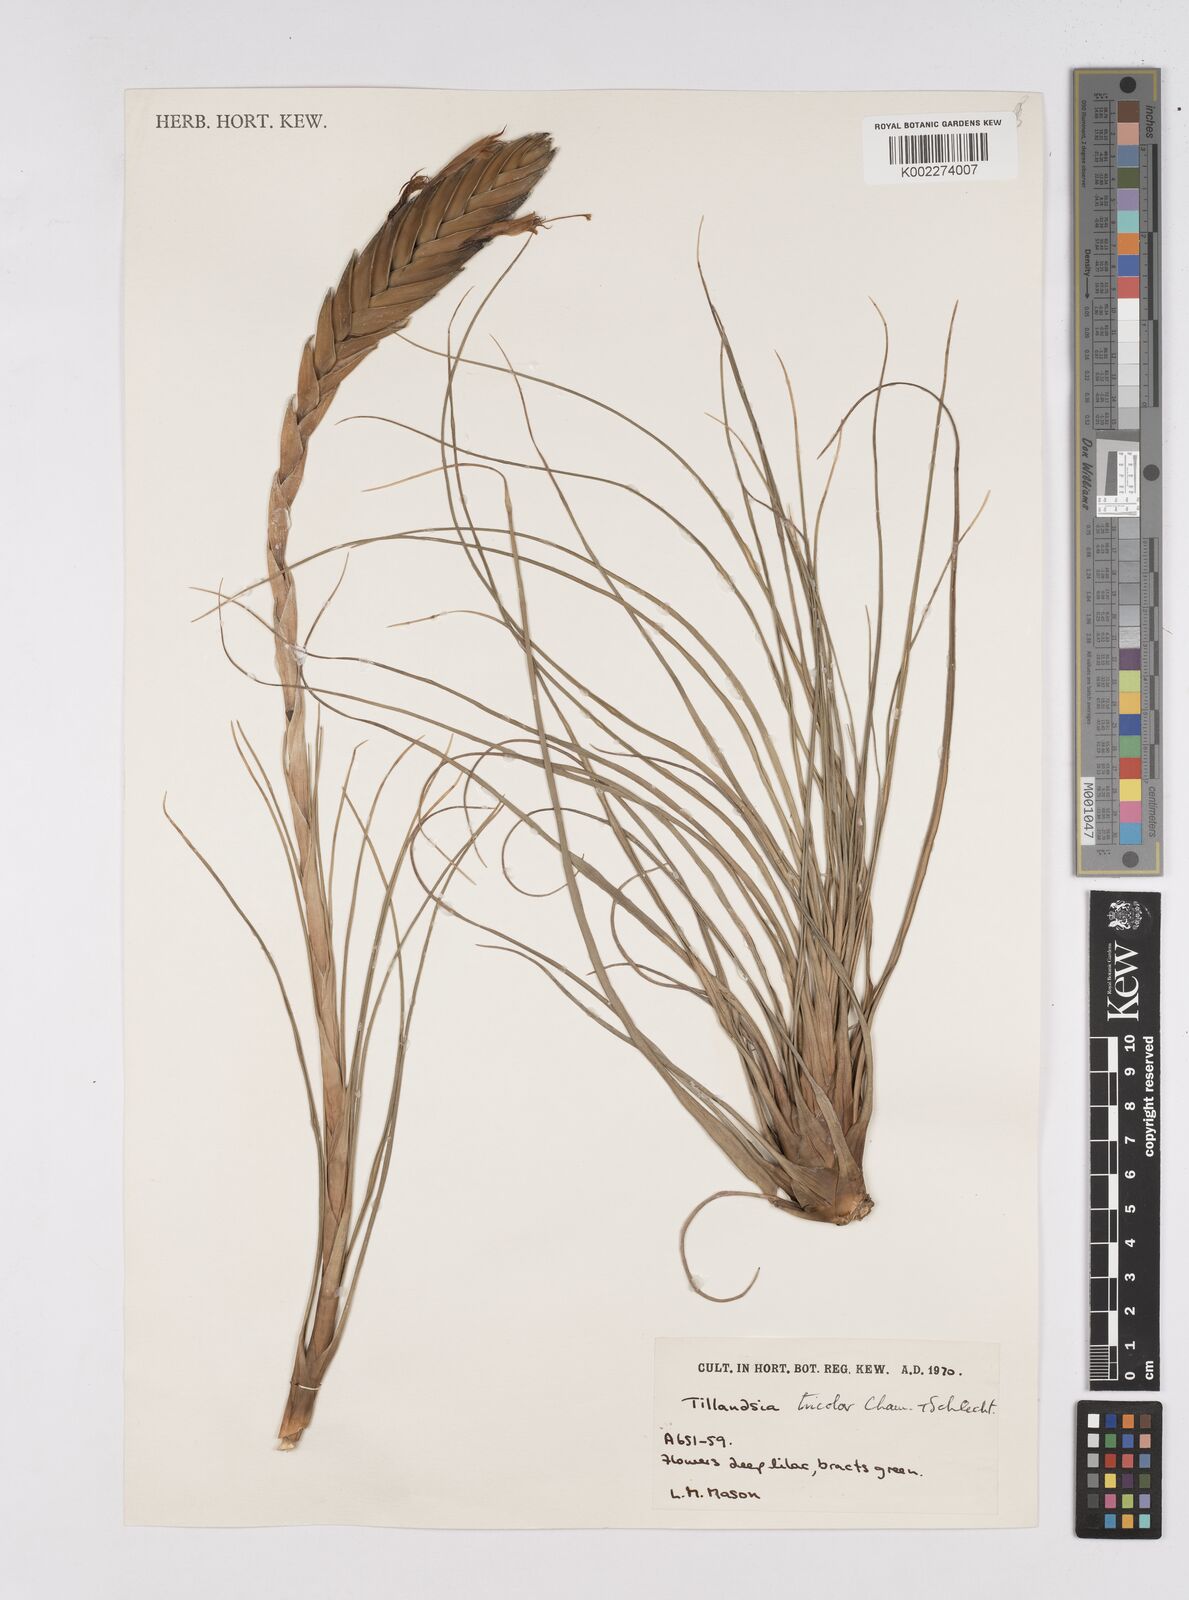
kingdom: Plantae
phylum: Tracheophyta
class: Liliopsida
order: Poales
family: Bromeliaceae
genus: Tillandsia
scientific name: Tillandsia tricolor
